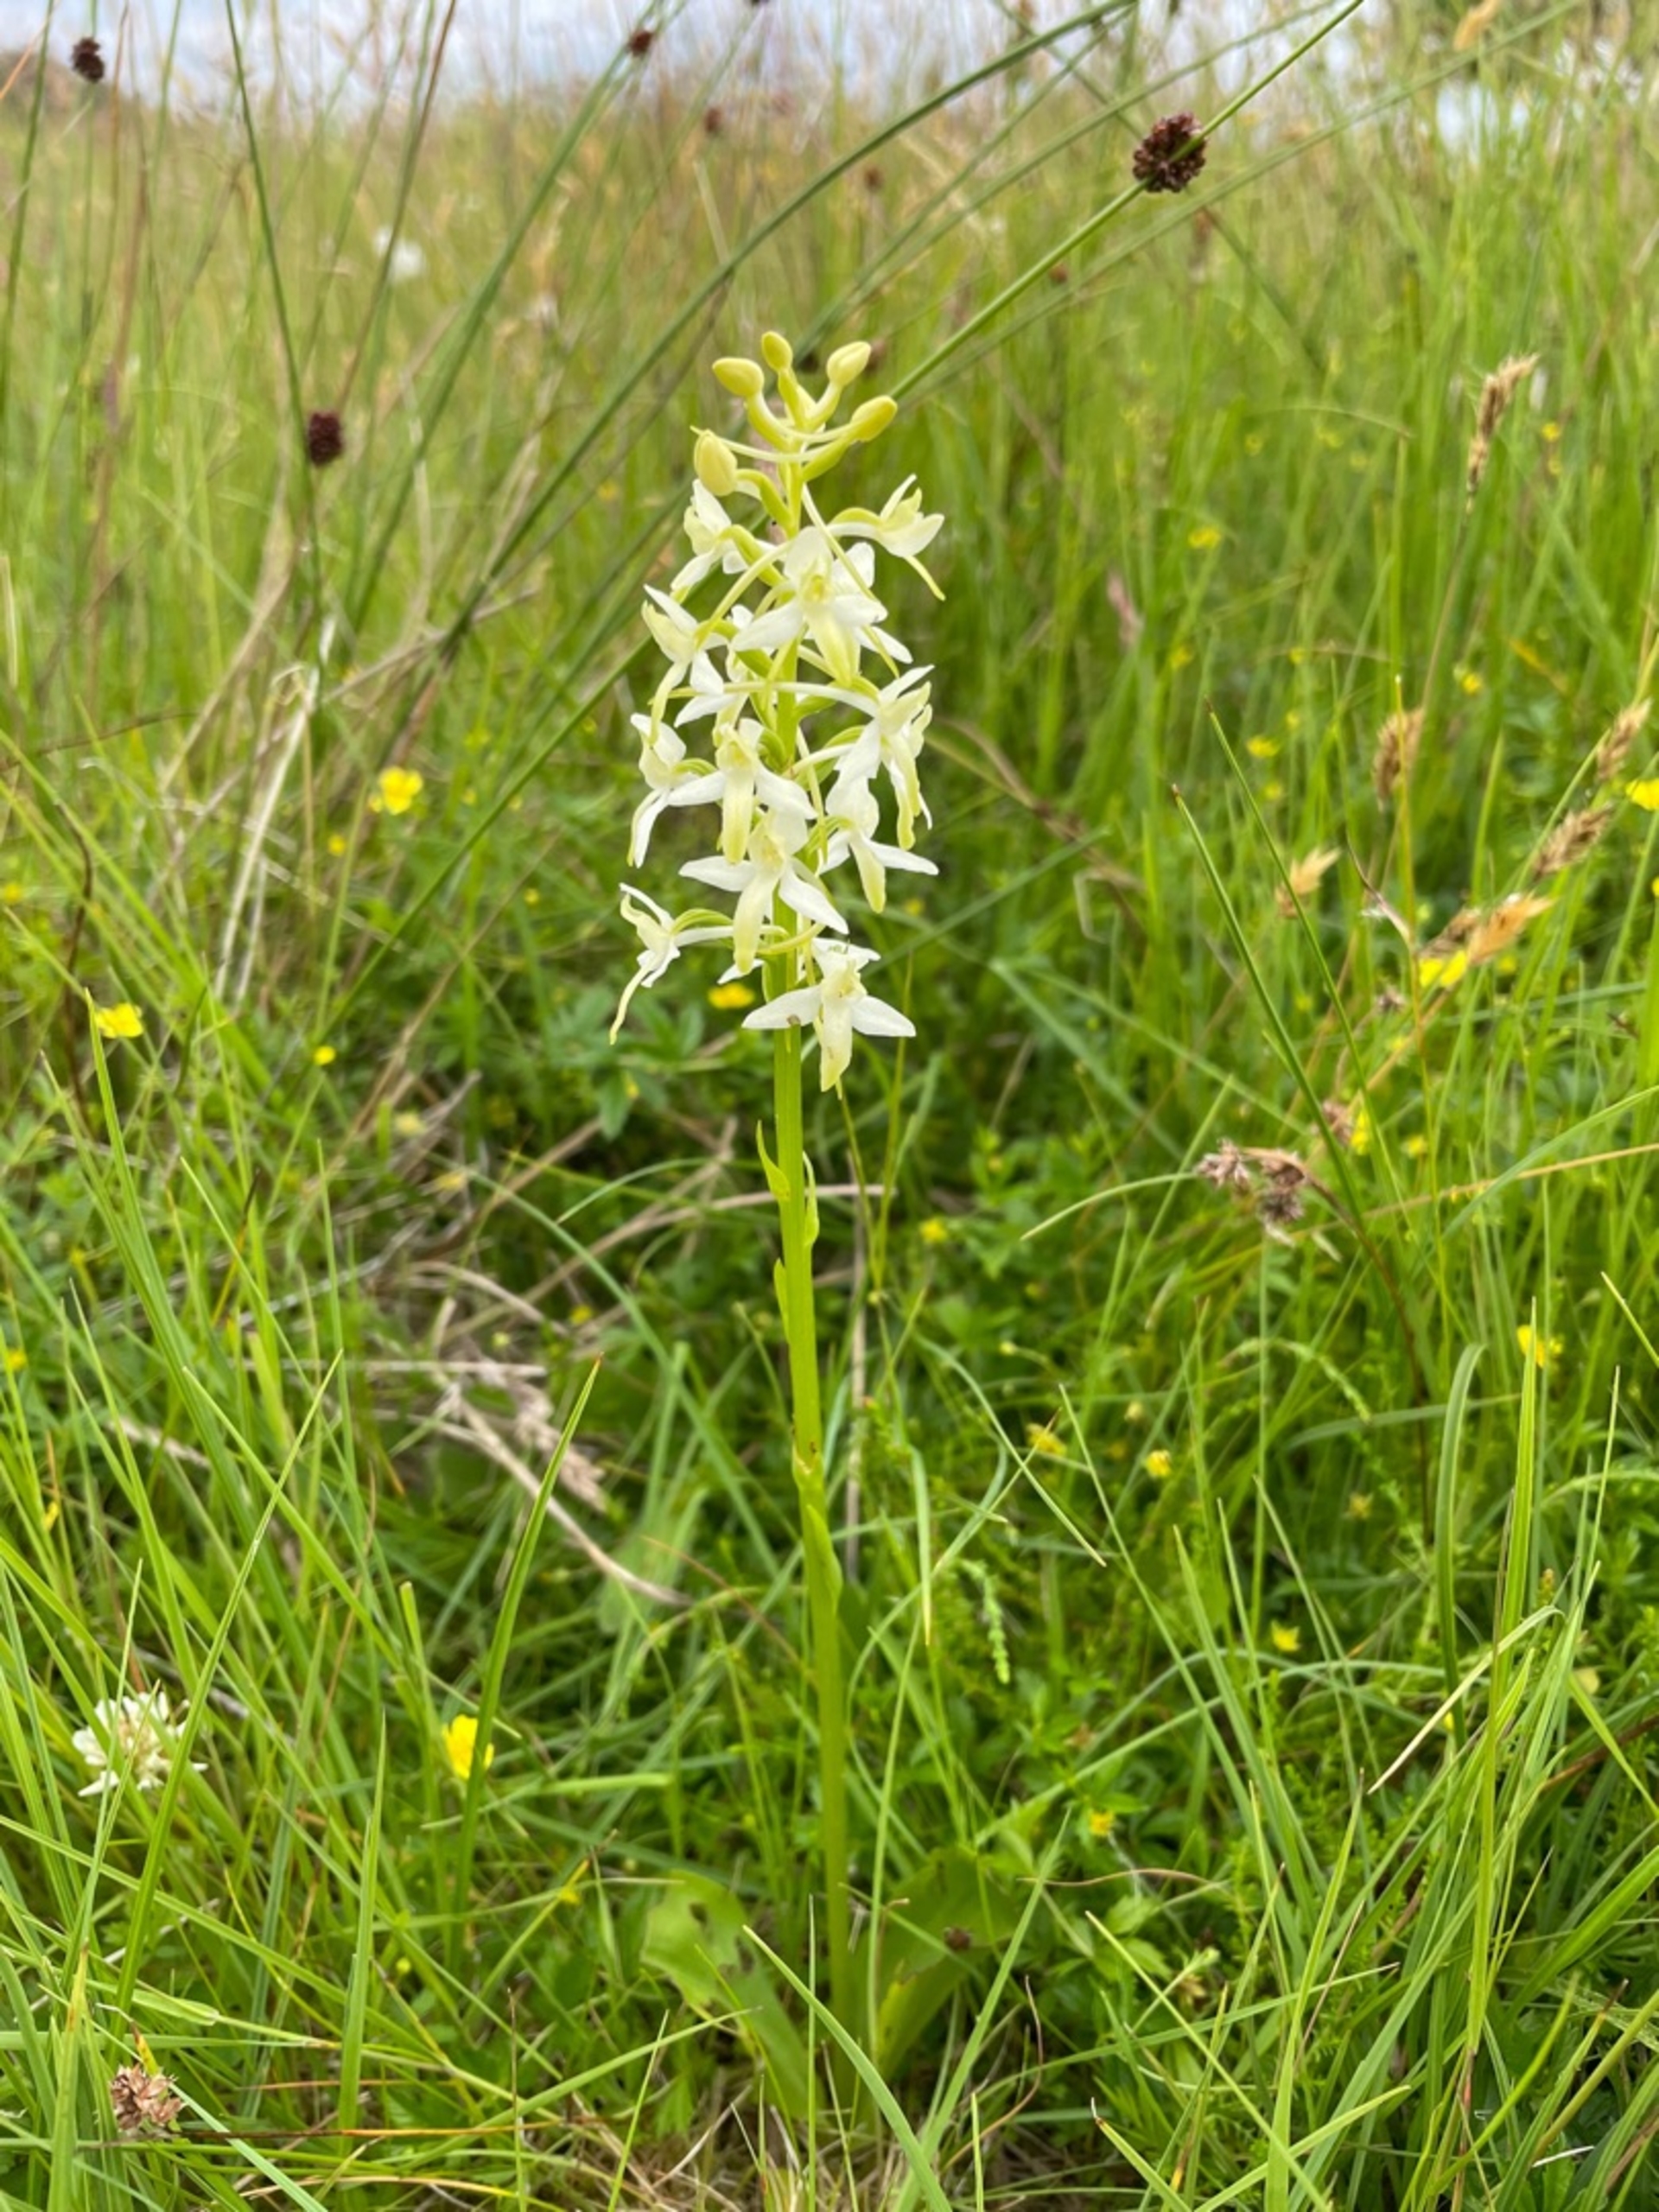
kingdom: Plantae
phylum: Tracheophyta
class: Liliopsida
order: Asparagales
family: Orchidaceae
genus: Platanthera
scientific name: Platanthera bifolia
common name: Bakke-gøgelilje
